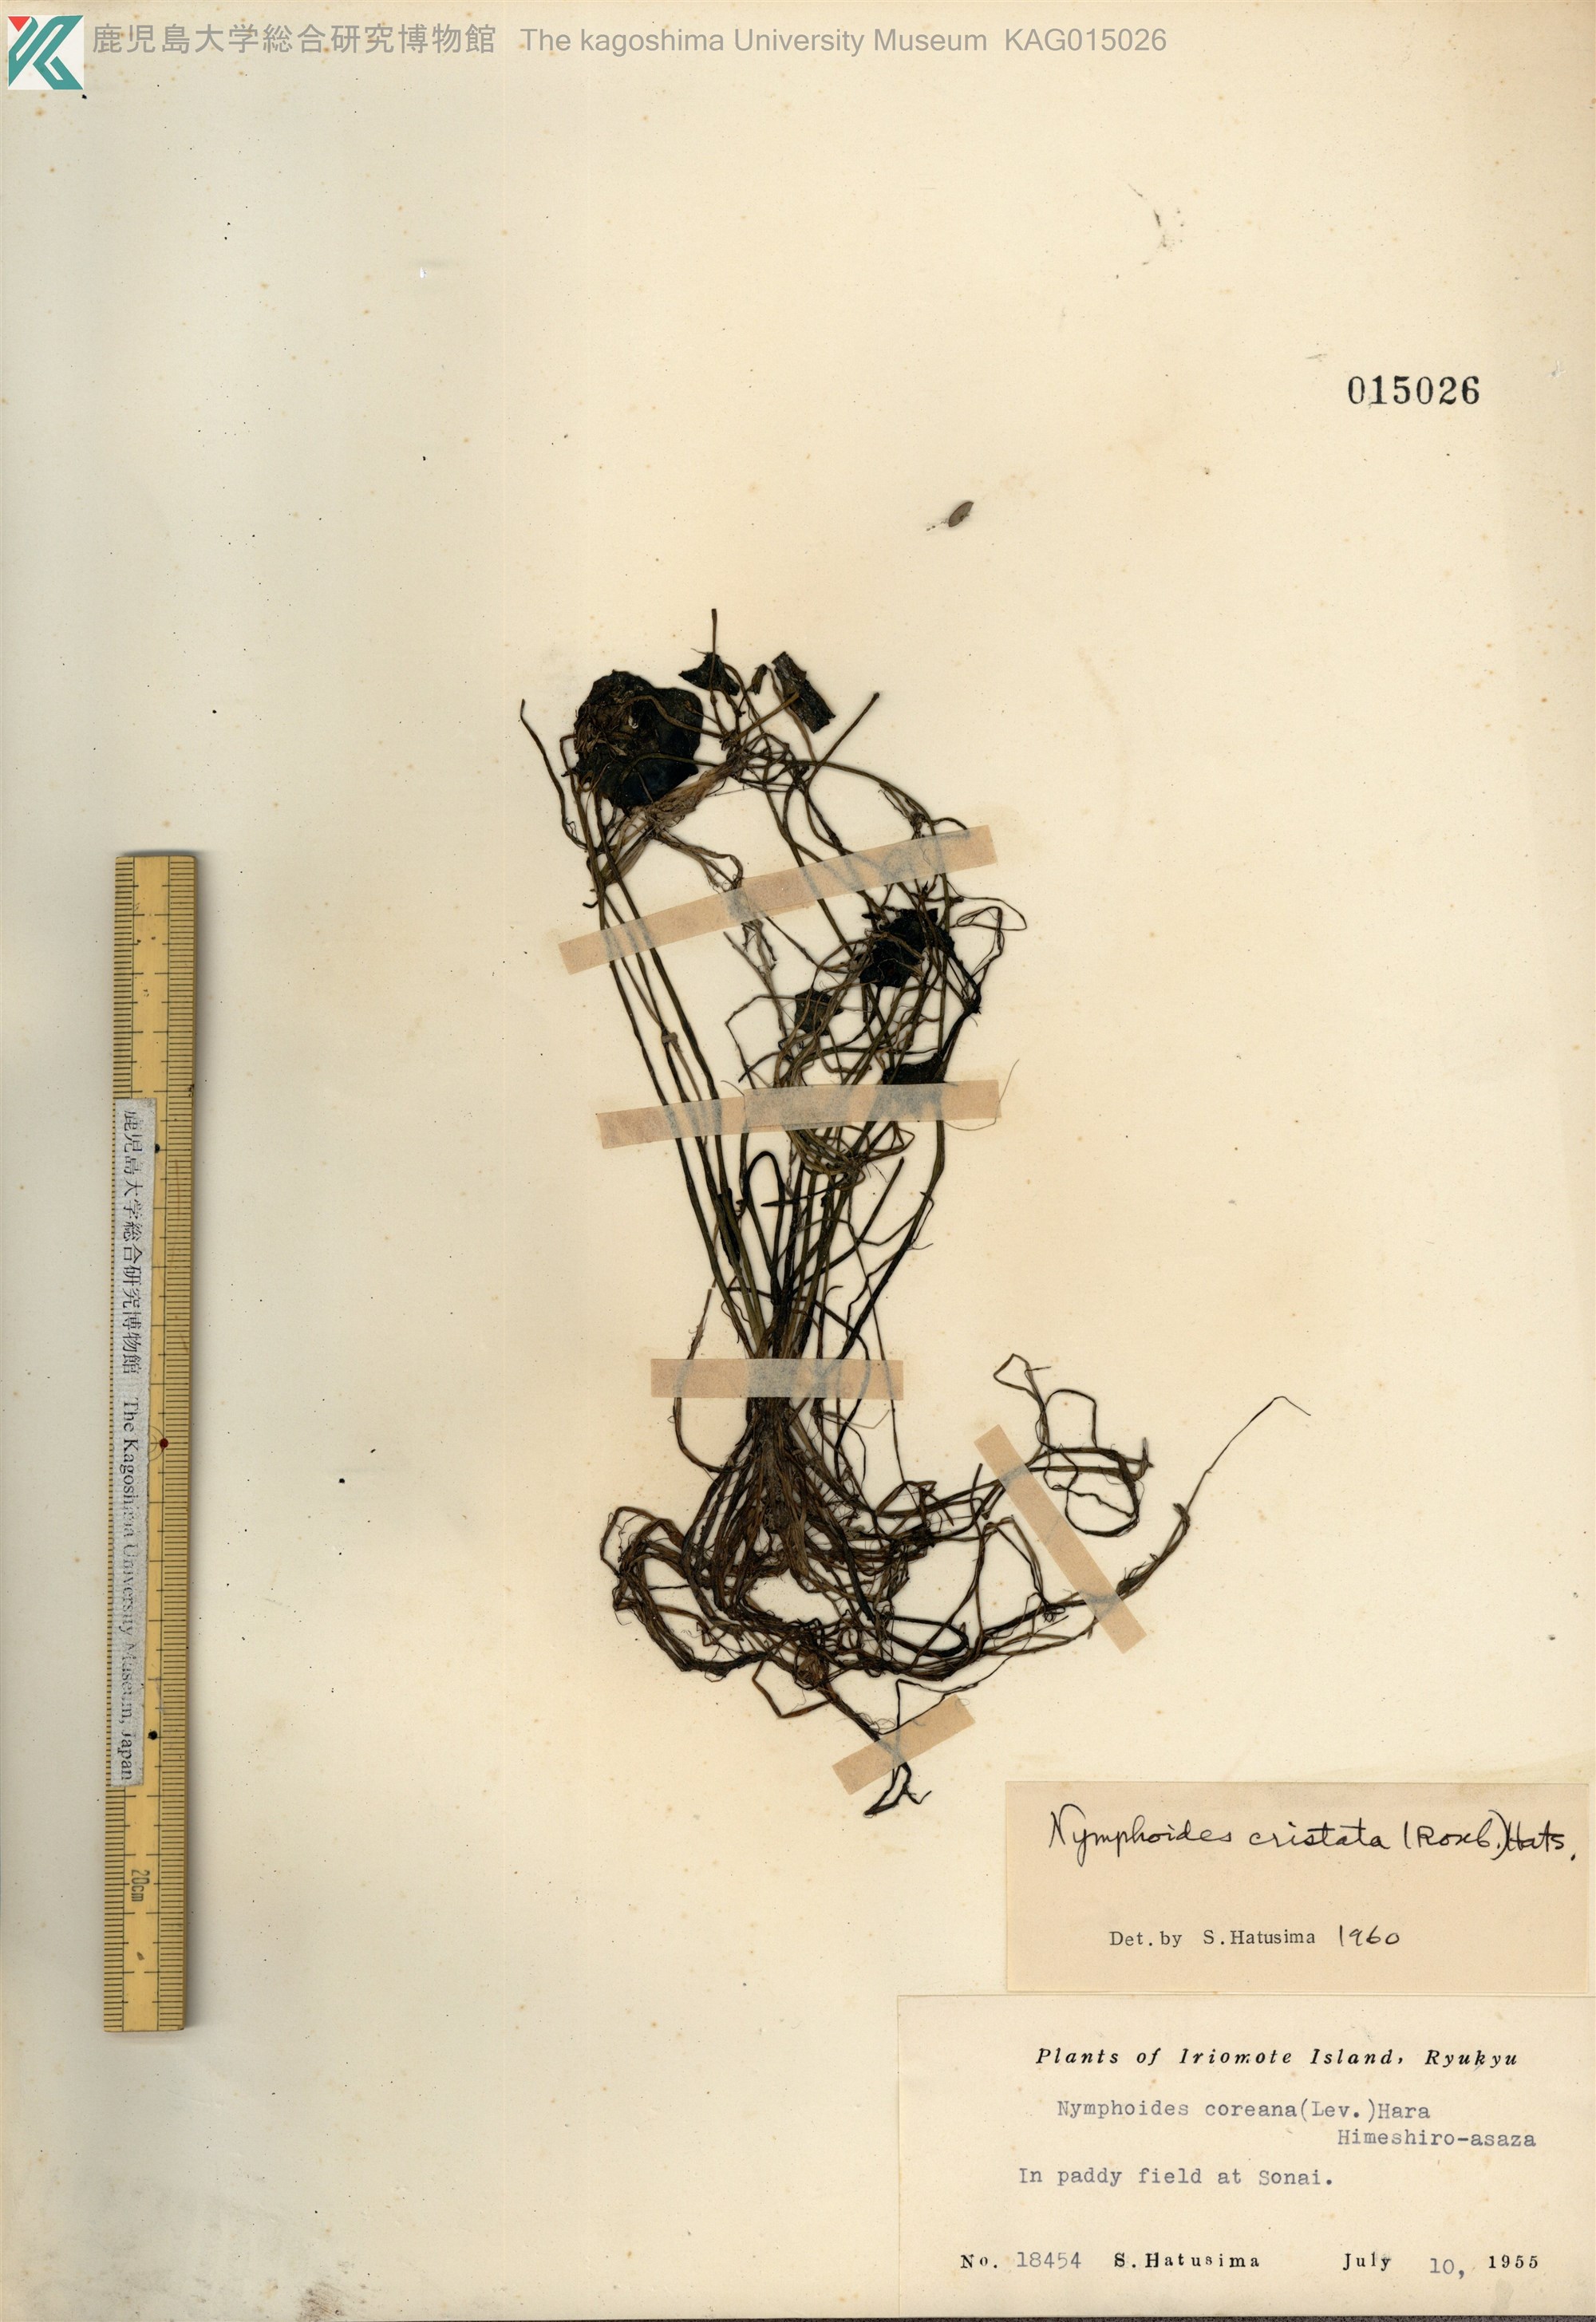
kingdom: Plantae
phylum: Tracheophyta
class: Magnoliopsida
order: Asterales
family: Menyanthaceae
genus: Nymphoides
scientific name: Nymphoides coreana
